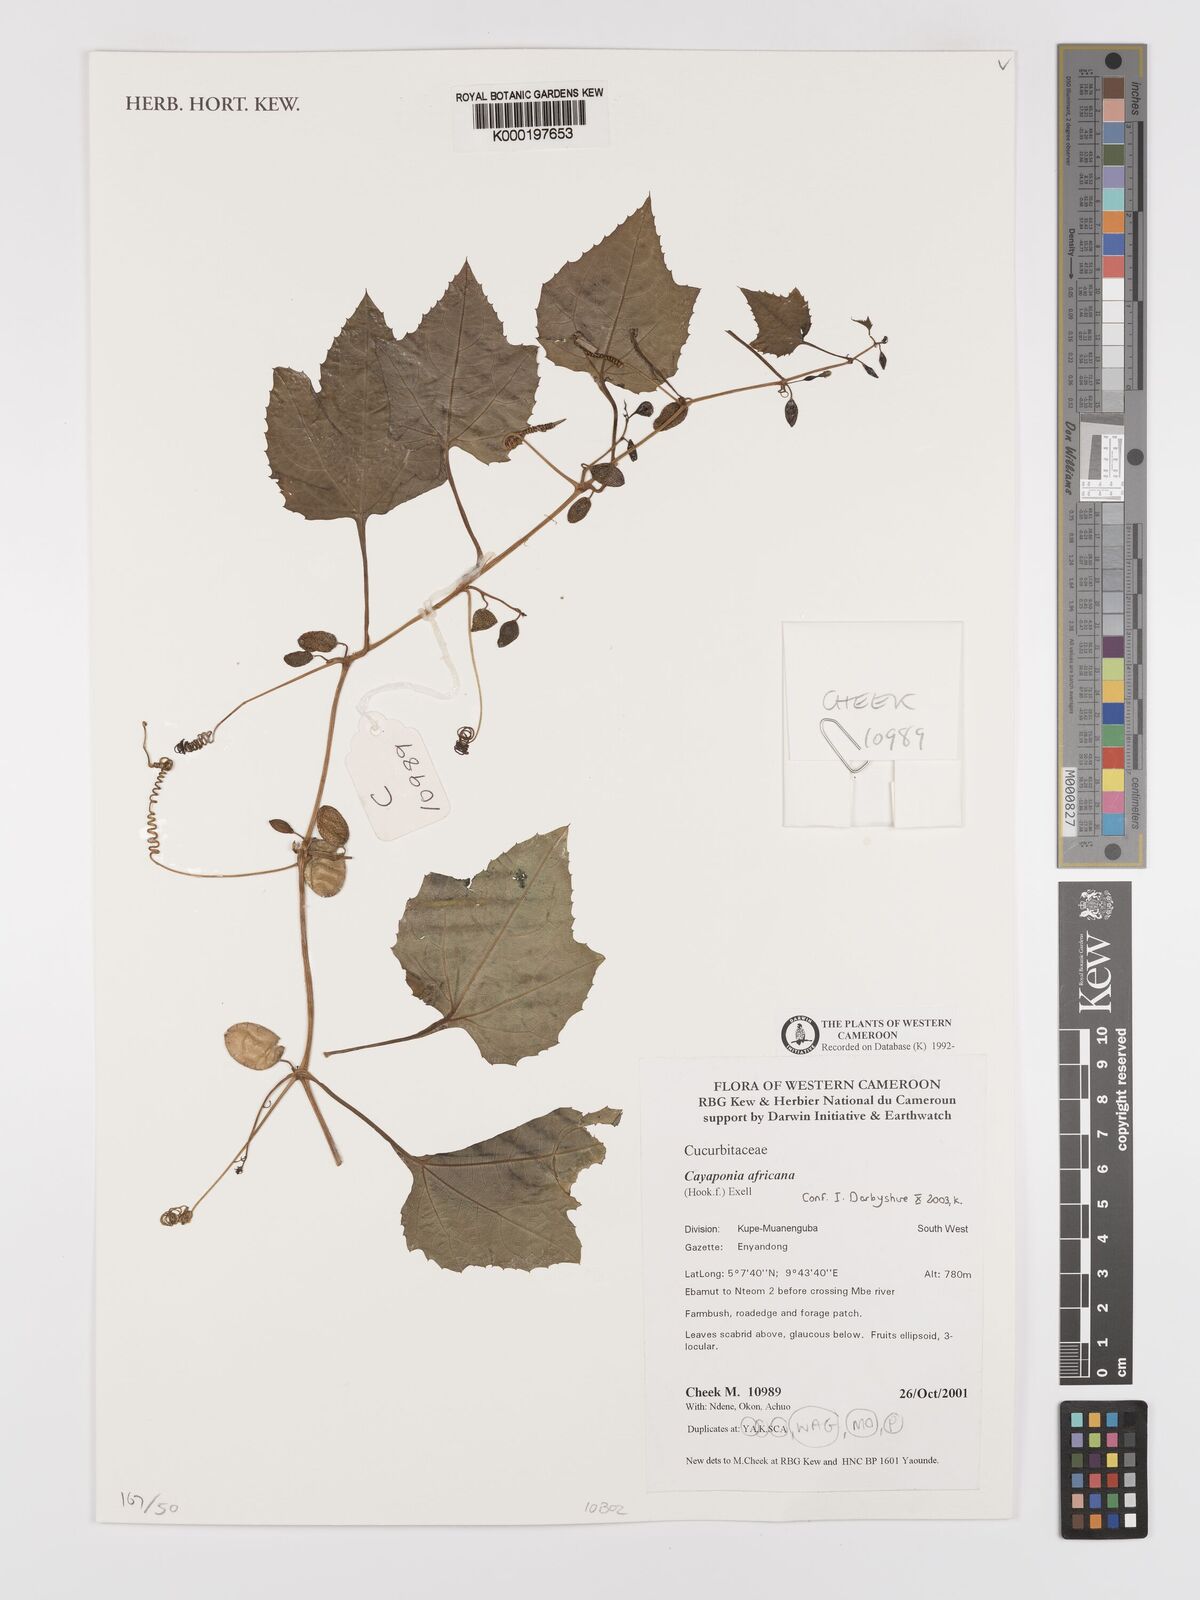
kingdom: Plantae
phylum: Tracheophyta
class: Magnoliopsida
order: Cucurbitales
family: Cucurbitaceae
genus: Cayaponia
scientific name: Cayaponia africana
